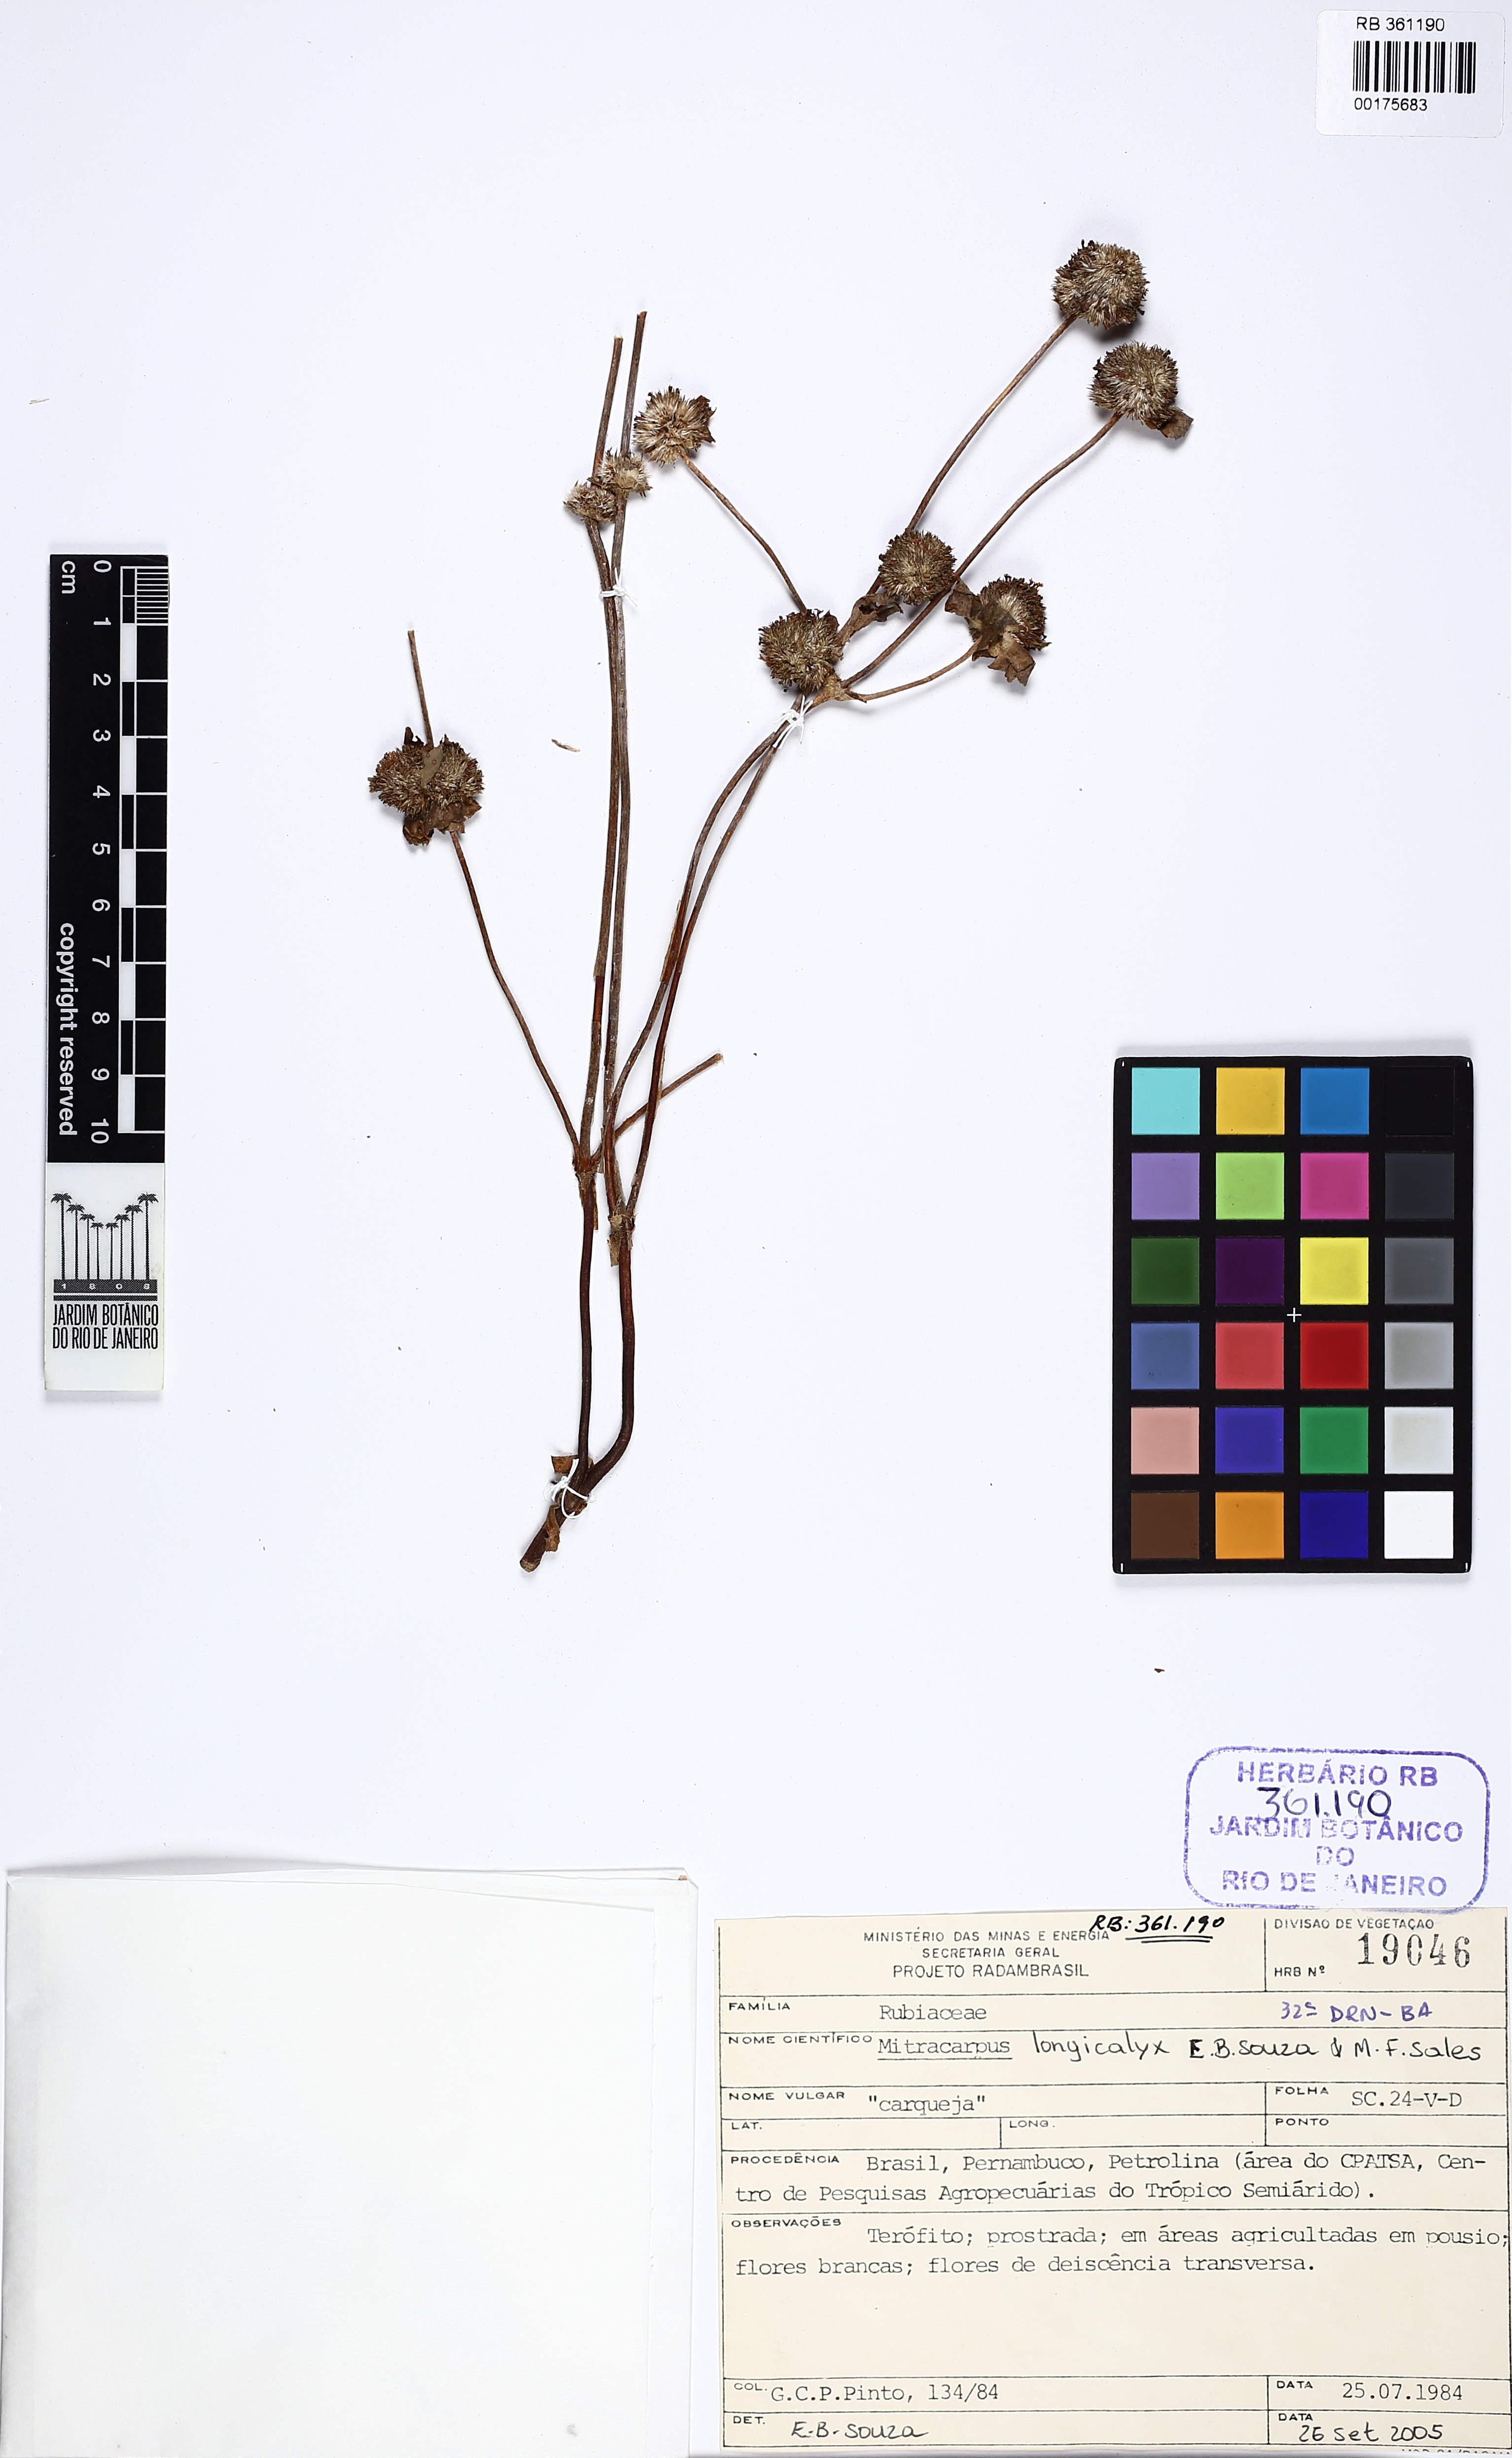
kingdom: Plantae
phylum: Tracheophyta
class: Magnoliopsida
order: Gentianales
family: Rubiaceae
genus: Mitracarpus
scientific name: Mitracarpus longicalyx
